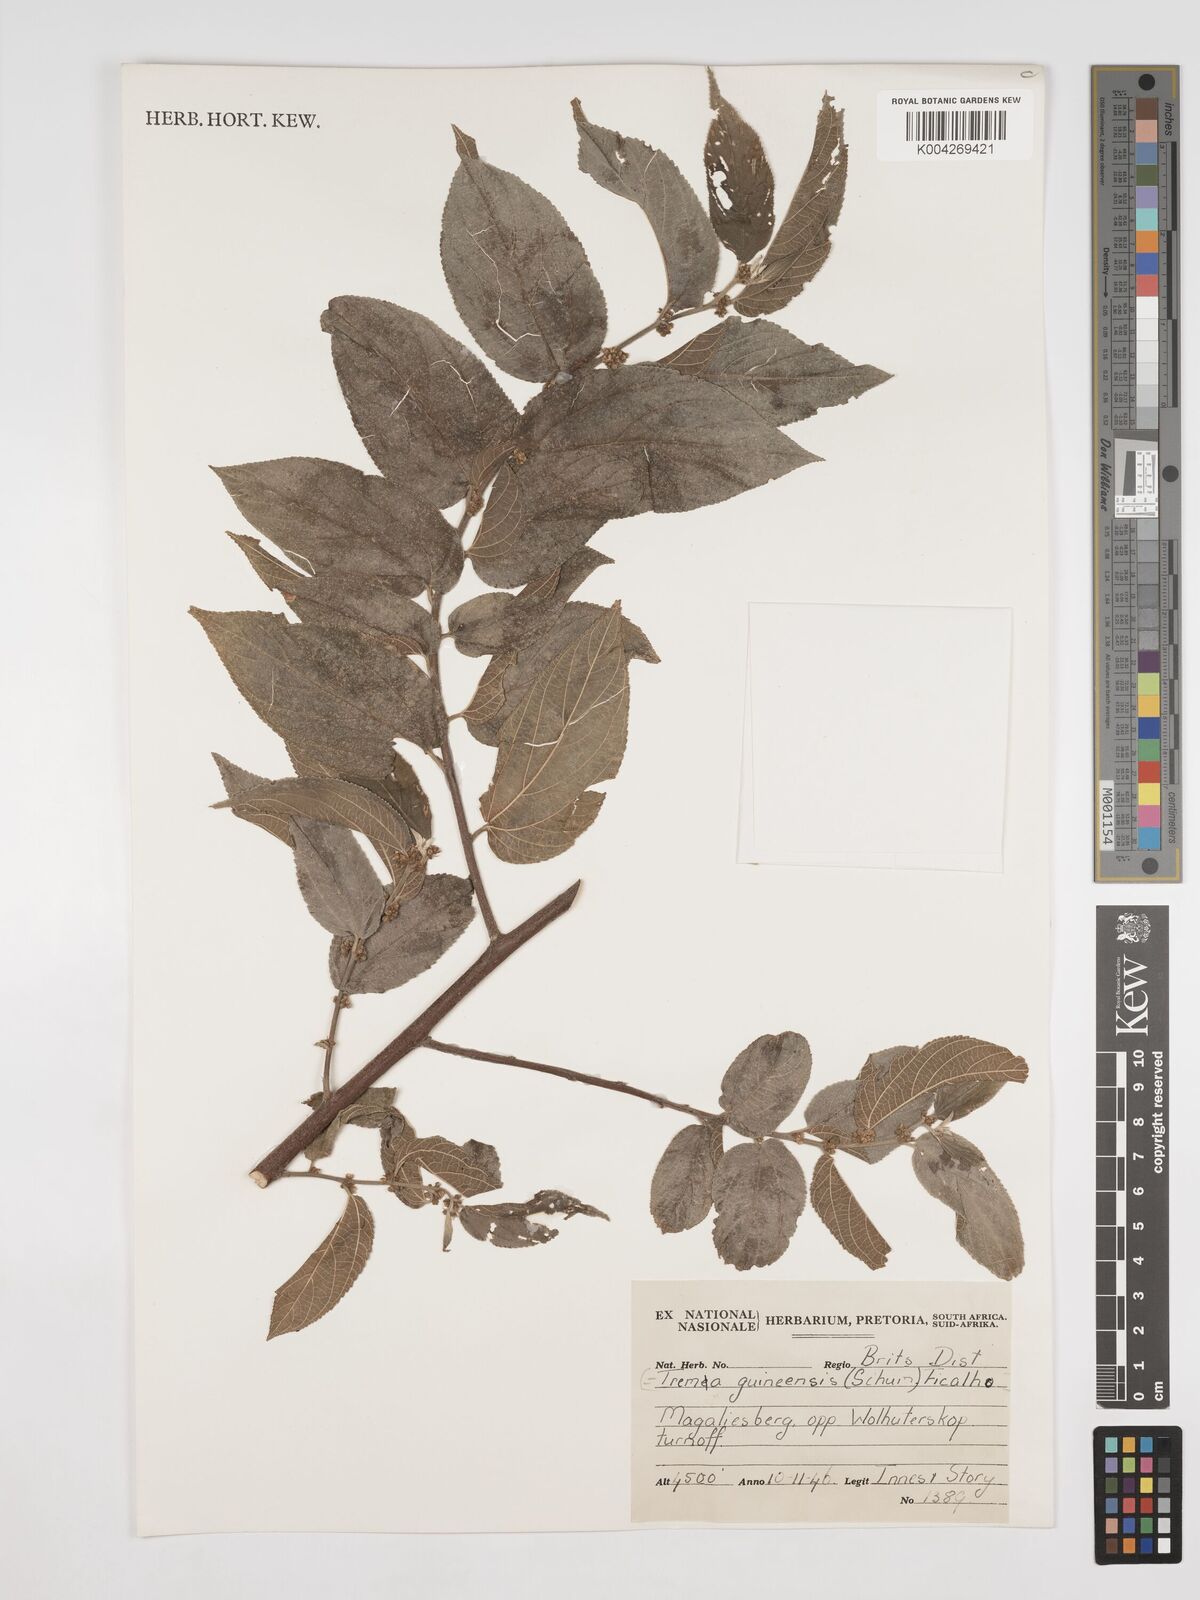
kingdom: Plantae
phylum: Tracheophyta
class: Magnoliopsida
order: Rosales
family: Cannabaceae
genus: Trema
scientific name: Trema orientale
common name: Indian charcoal tree
